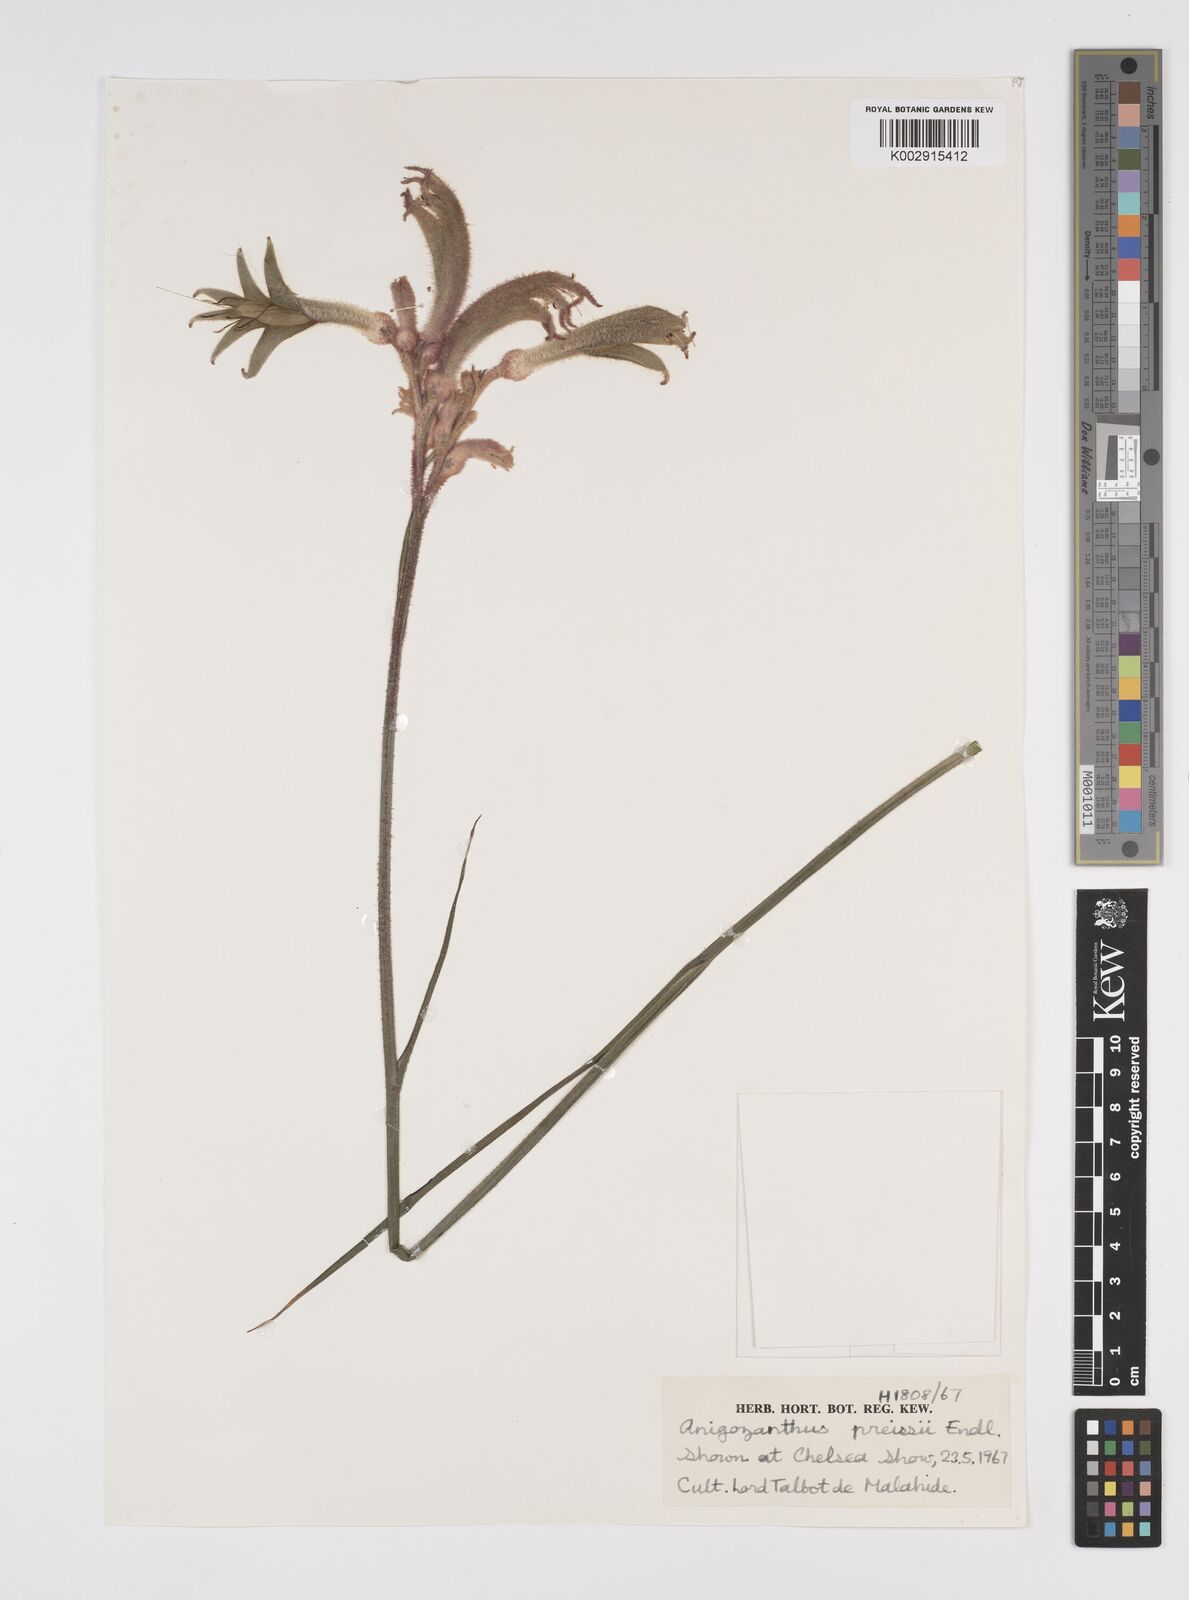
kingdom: Plantae
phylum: Tracheophyta
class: Liliopsida
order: Commelinales
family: Haemodoraceae
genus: Anigozanthos
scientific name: Anigozanthos preissii
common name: Albany cat's-paw
